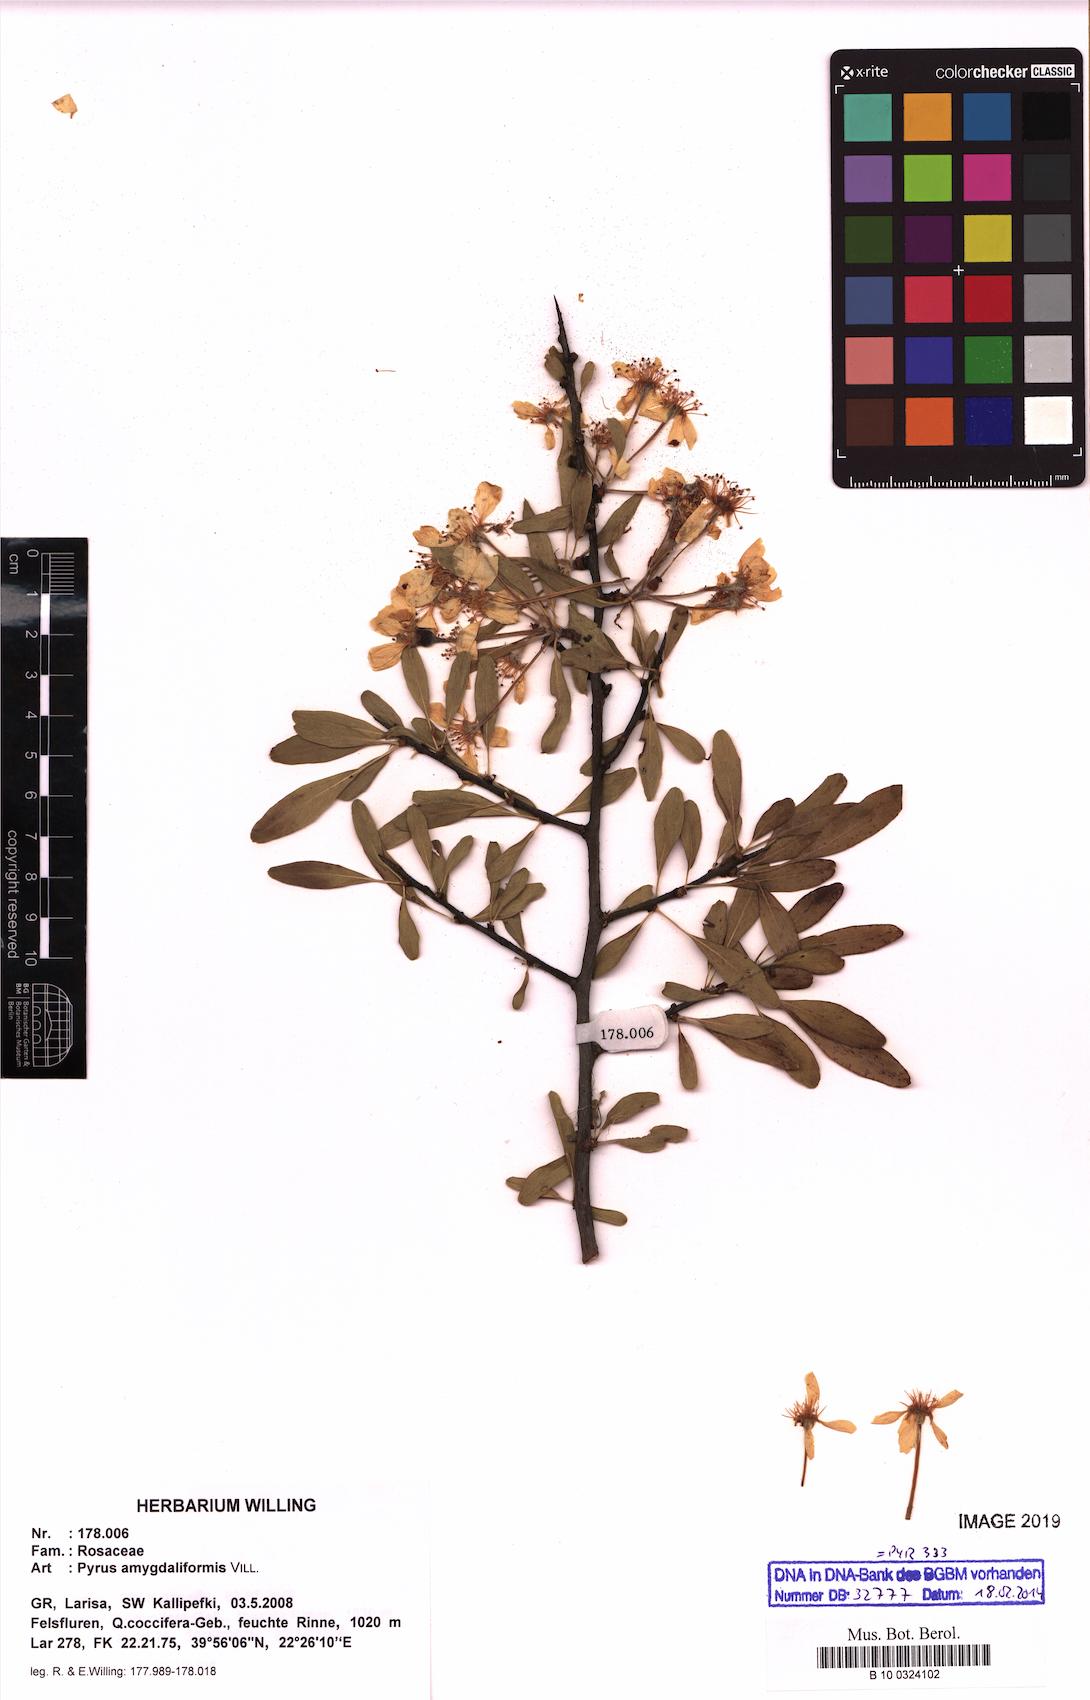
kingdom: Plantae
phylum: Tracheophyta
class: Magnoliopsida
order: Rosales
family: Rosaceae
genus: Pyrus
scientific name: Pyrus spinosa
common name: Almond-leaf pear
